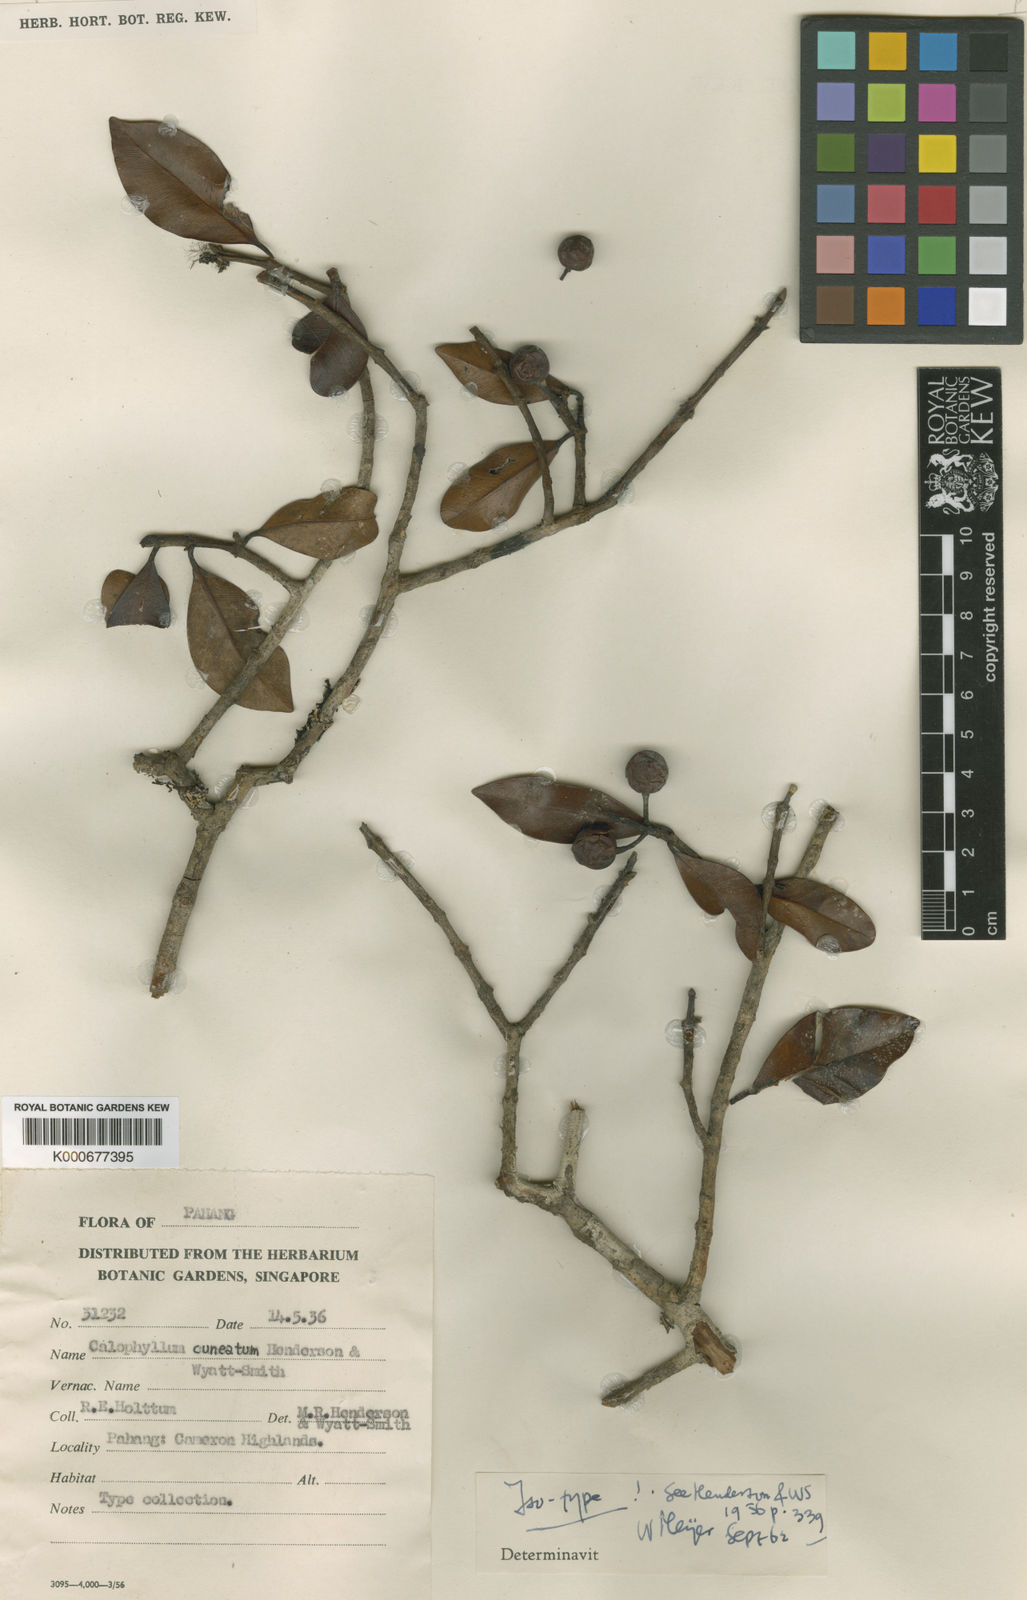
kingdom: Plantae
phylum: Tracheophyta
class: Magnoliopsida
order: Malpighiales
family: Calophyllaceae
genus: Calophyllum
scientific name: Calophyllum calaba
